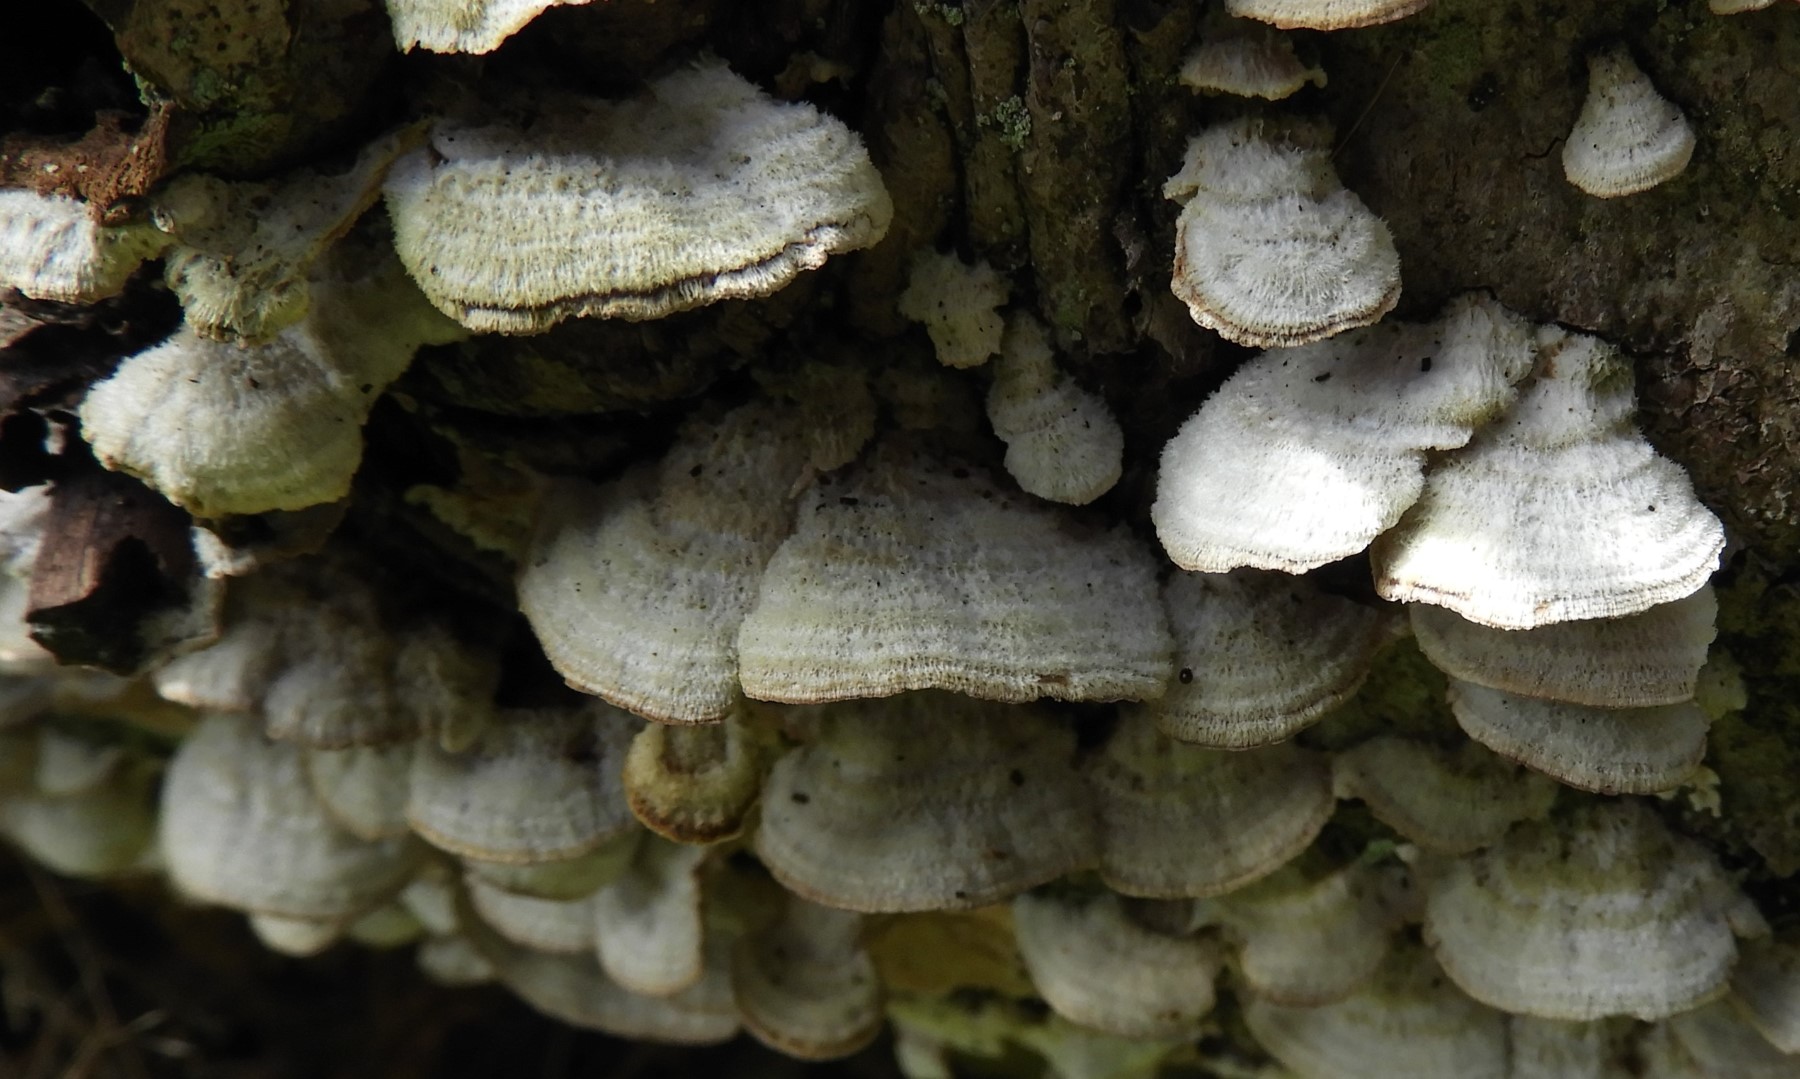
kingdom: Fungi
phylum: Basidiomycota
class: Agaricomycetes
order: Hymenochaetales
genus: Trichaptum
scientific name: Trichaptum abietinum
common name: almindelig violporesvamp
